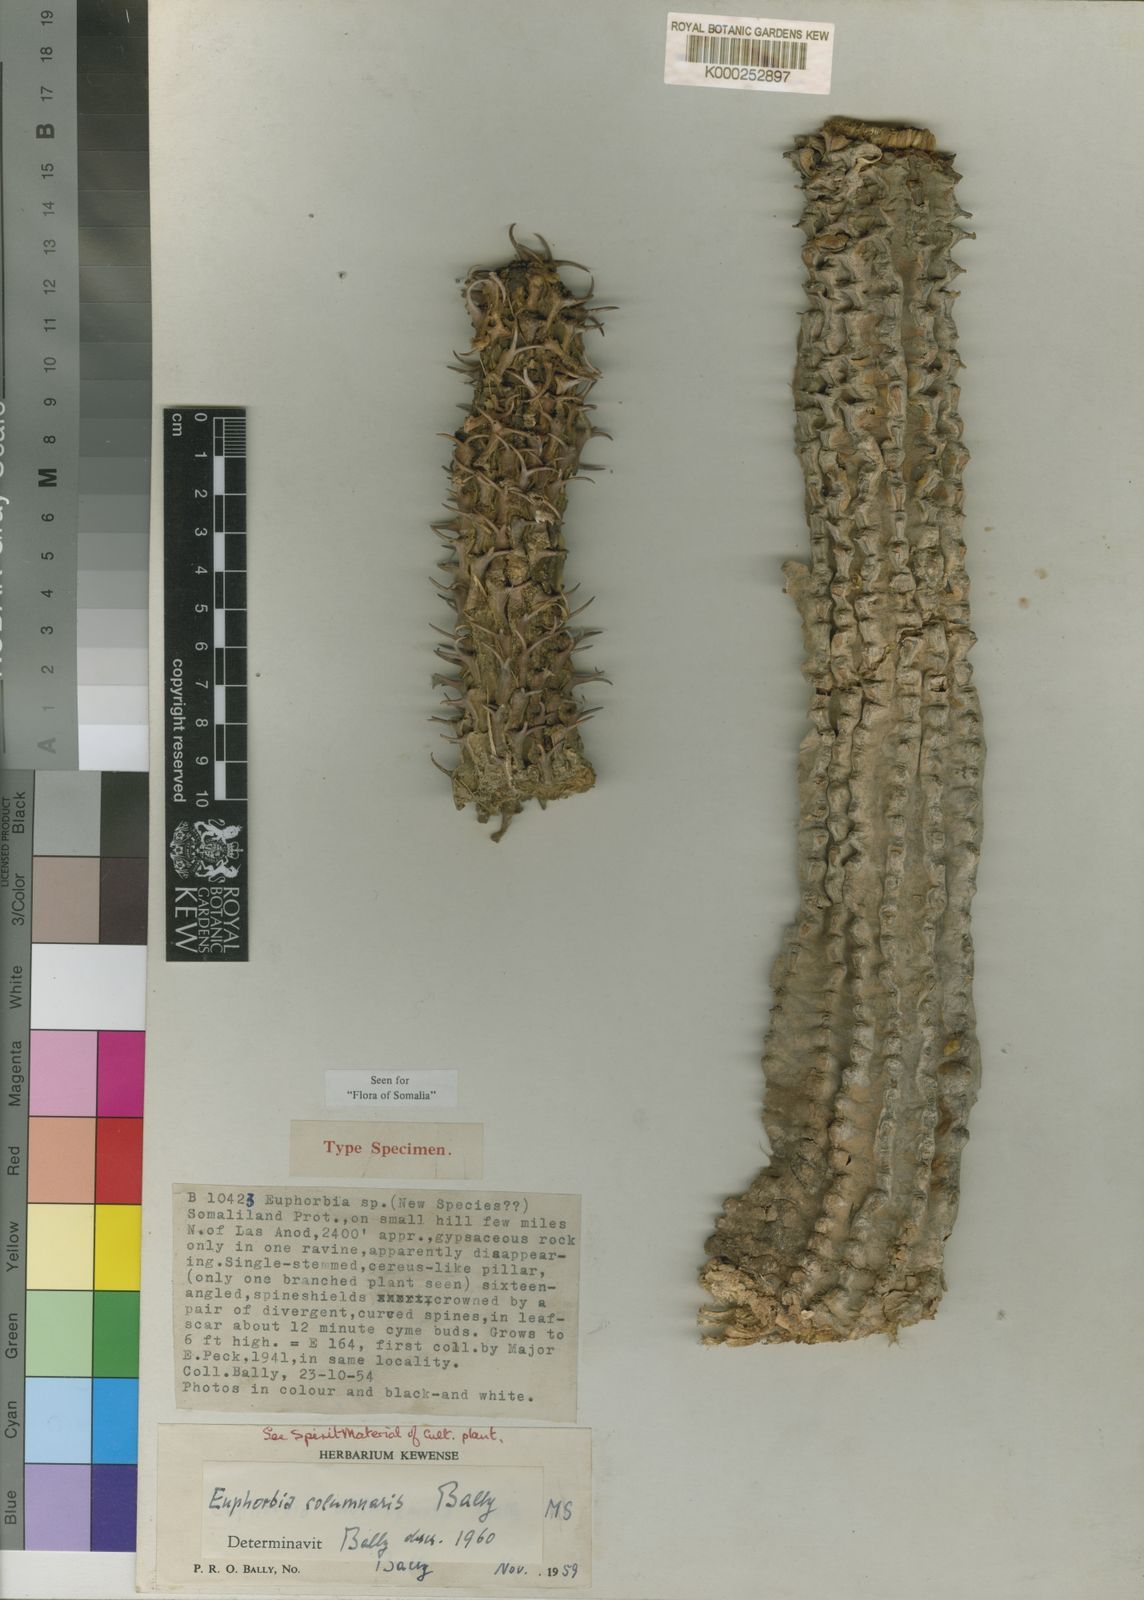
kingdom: Plantae
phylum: Tracheophyta
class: Magnoliopsida
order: Malpighiales
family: Euphorbiaceae
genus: Euphorbia
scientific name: Euphorbia columnaris
